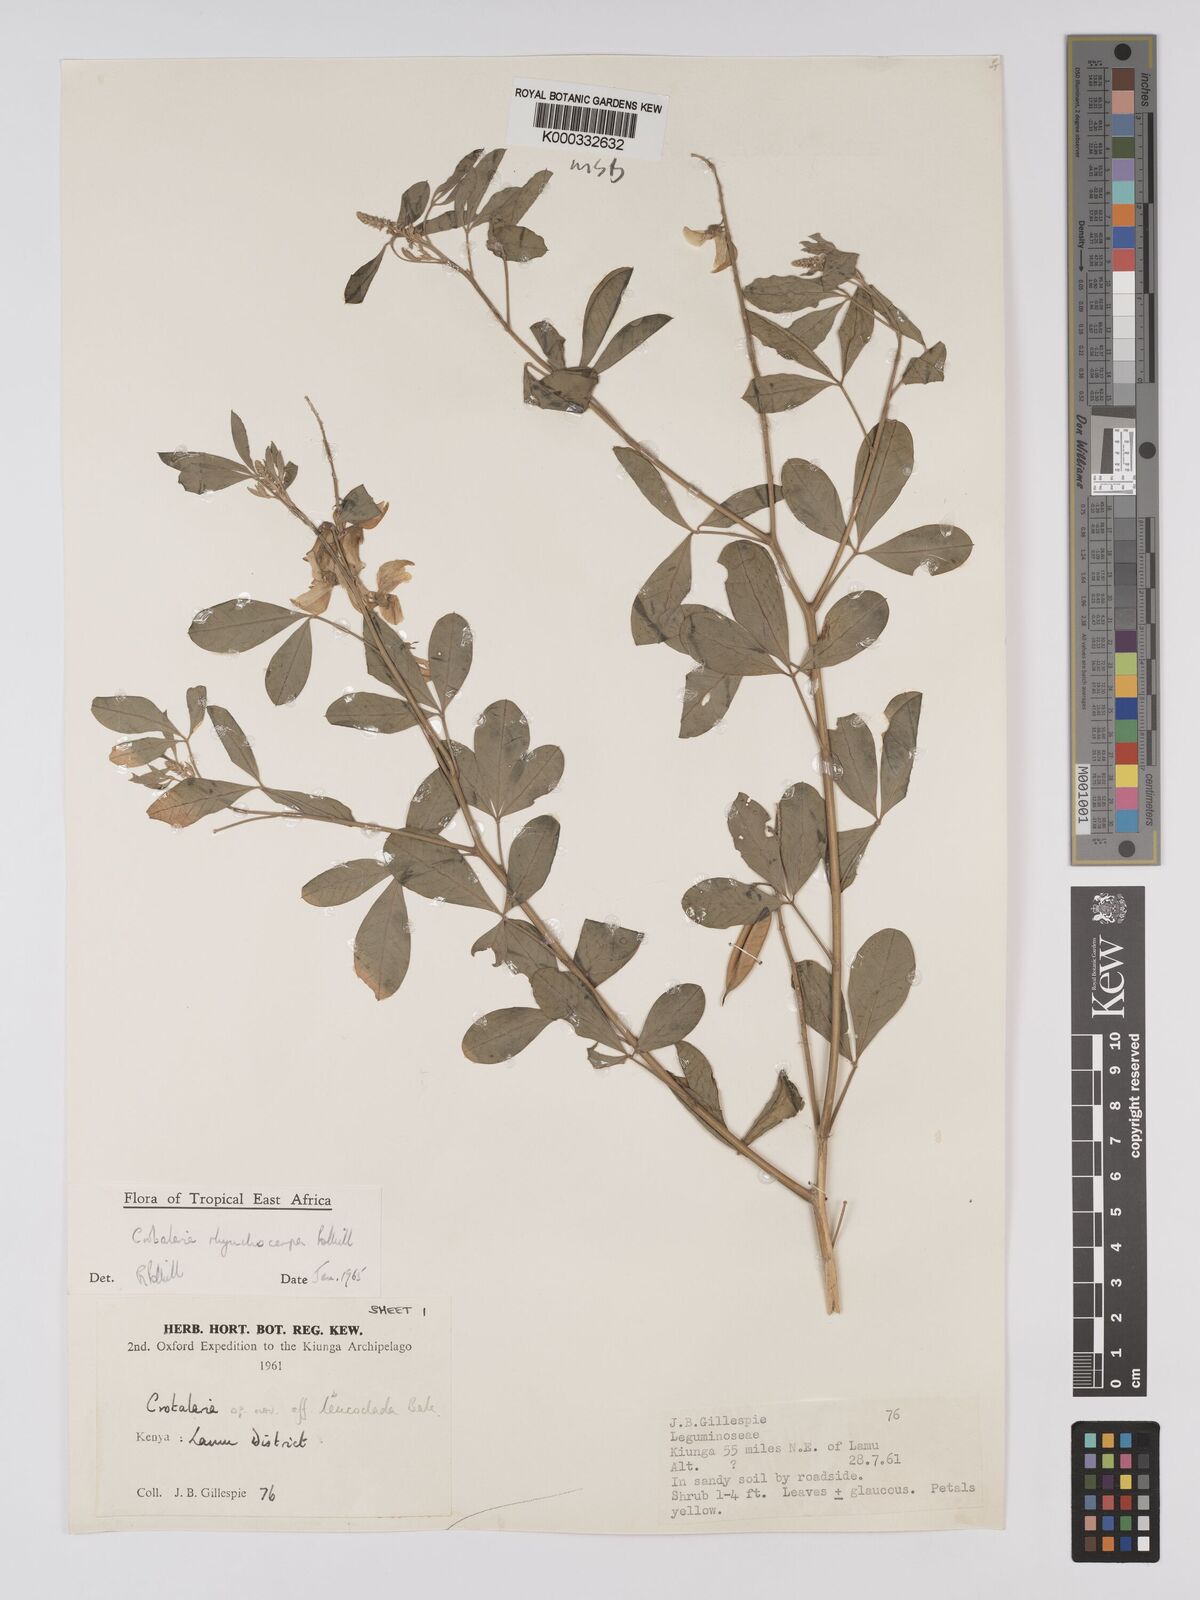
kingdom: Plantae
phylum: Tracheophyta
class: Magnoliopsida
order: Fabales
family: Fabaceae
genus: Crotalaria
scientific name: Crotalaria rhynchocarpa
